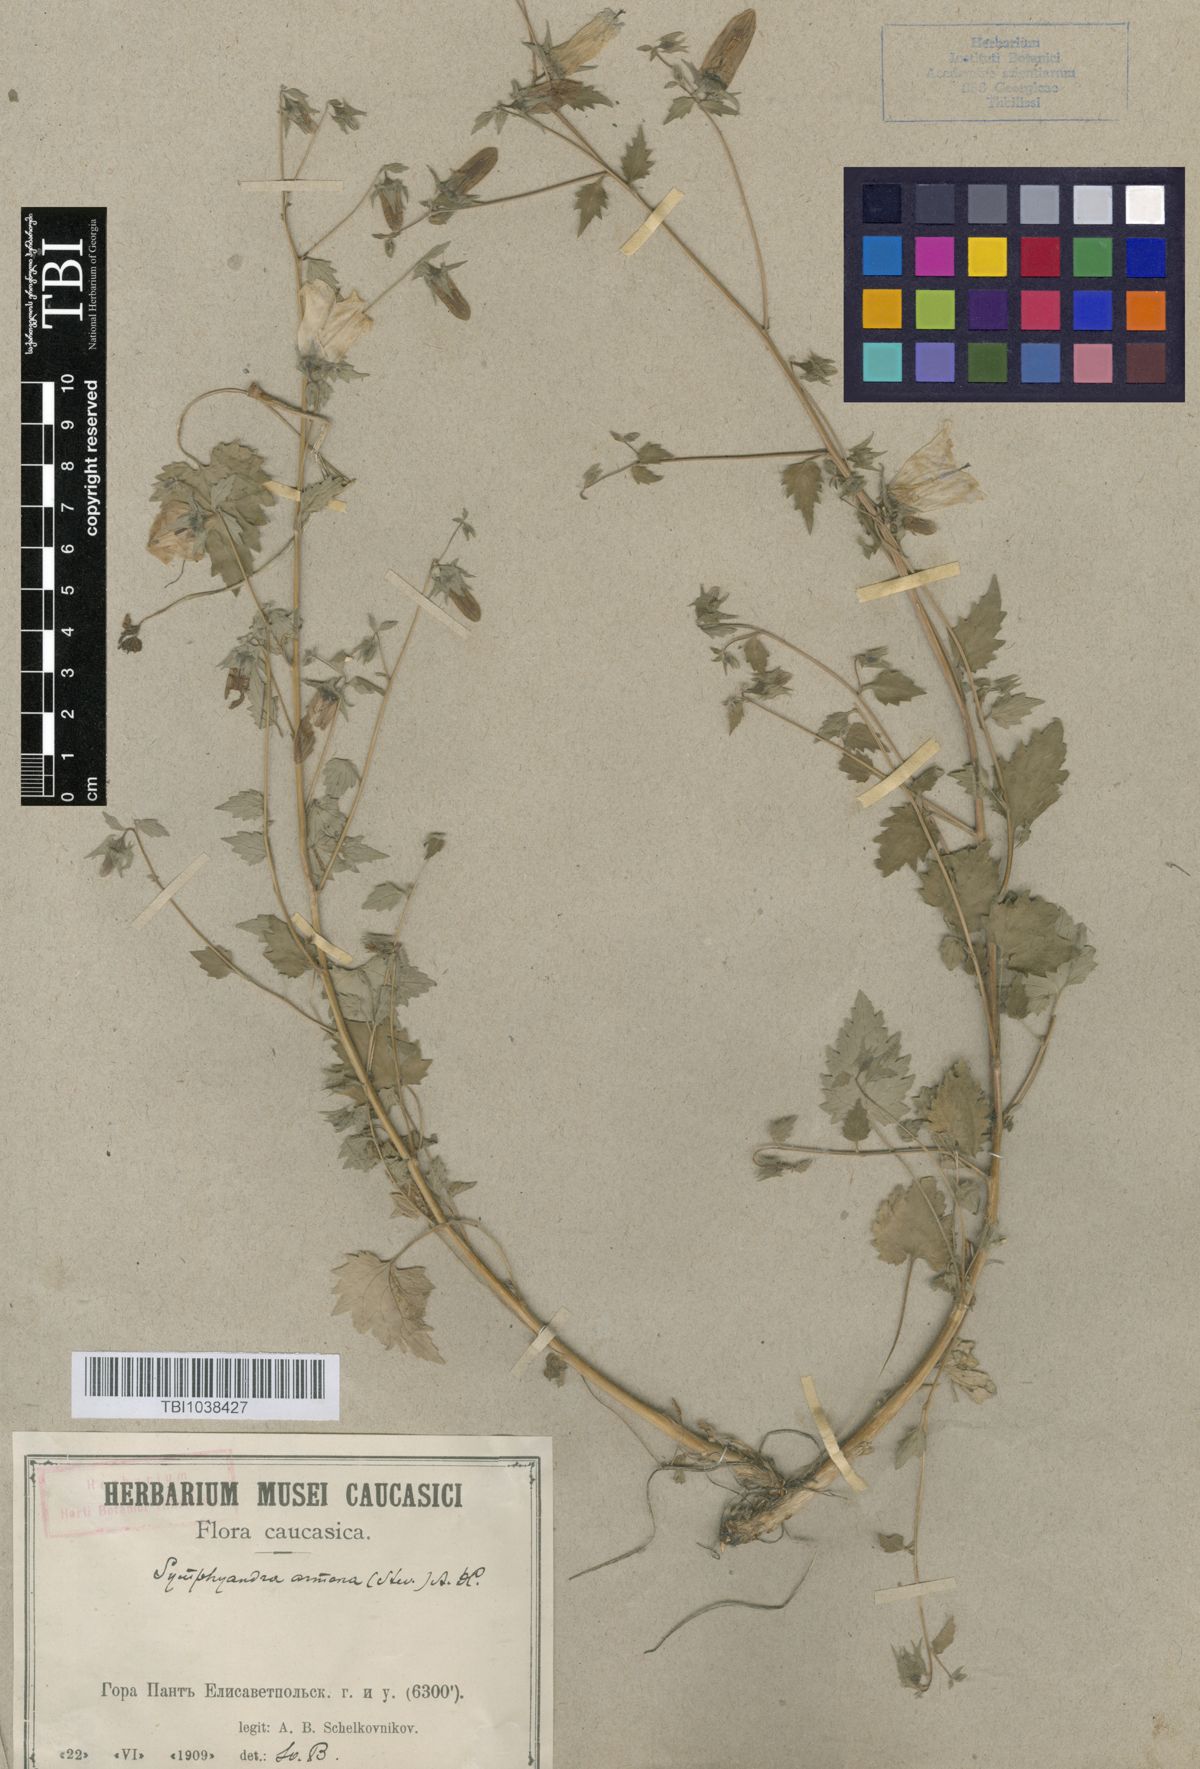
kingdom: Plantae
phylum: Tracheophyta
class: Magnoliopsida
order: Asterales
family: Campanulaceae
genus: Campanula
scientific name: Campanula armena
